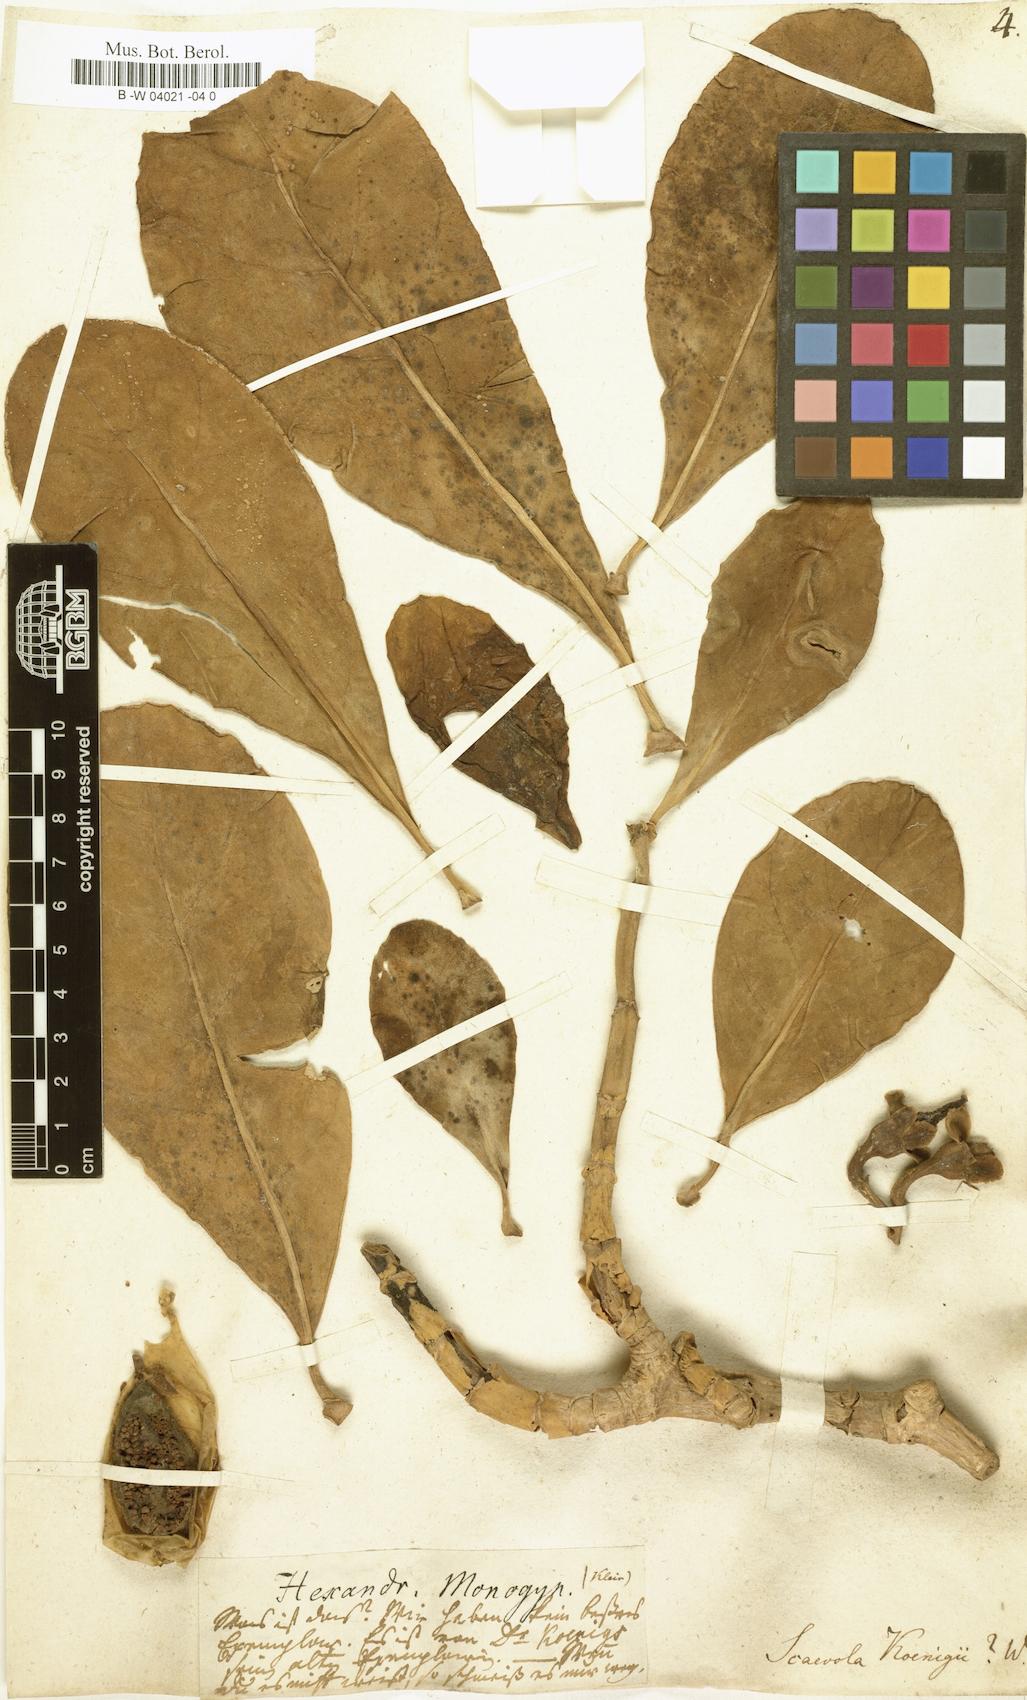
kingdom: Plantae
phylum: Tracheophyta
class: Magnoliopsida
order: Asterales
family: Goodeniaceae
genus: Scaevola
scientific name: Scaevola taccada
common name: Sea lettucetree
